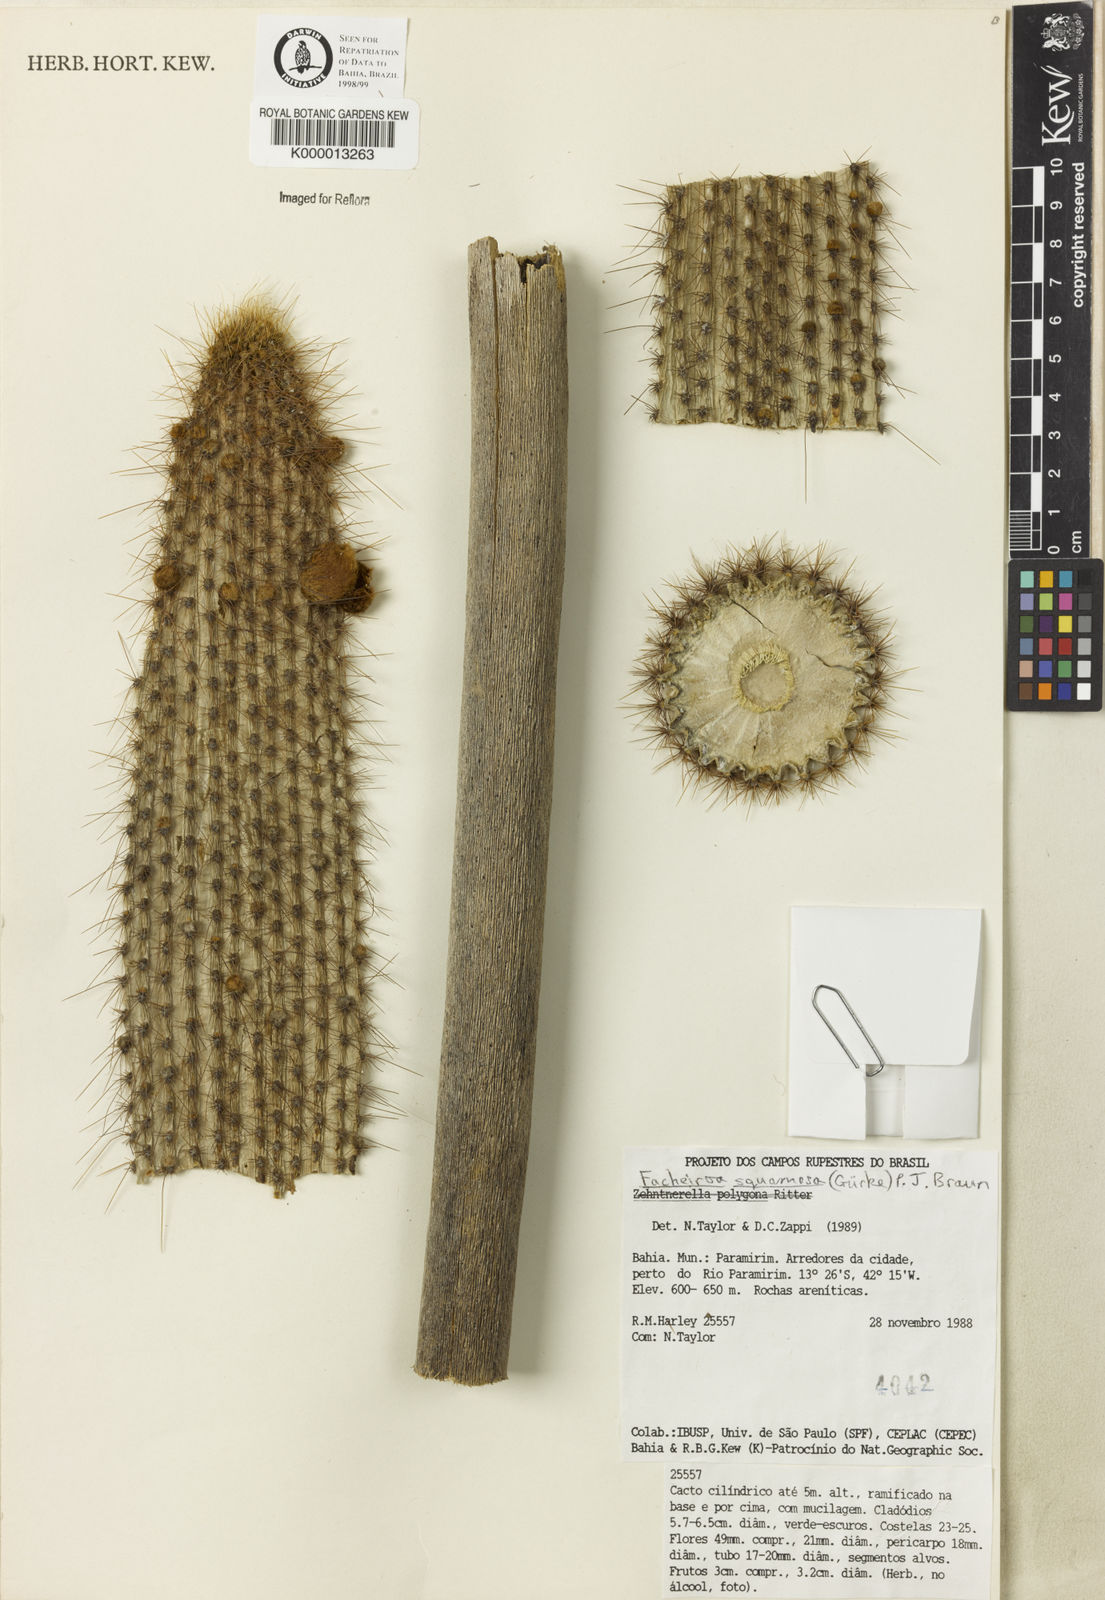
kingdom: Plantae
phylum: Tracheophyta
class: Magnoliopsida
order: Caryophyllales
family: Cactaceae
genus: Facheiroa
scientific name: Facheiroa squamosa
